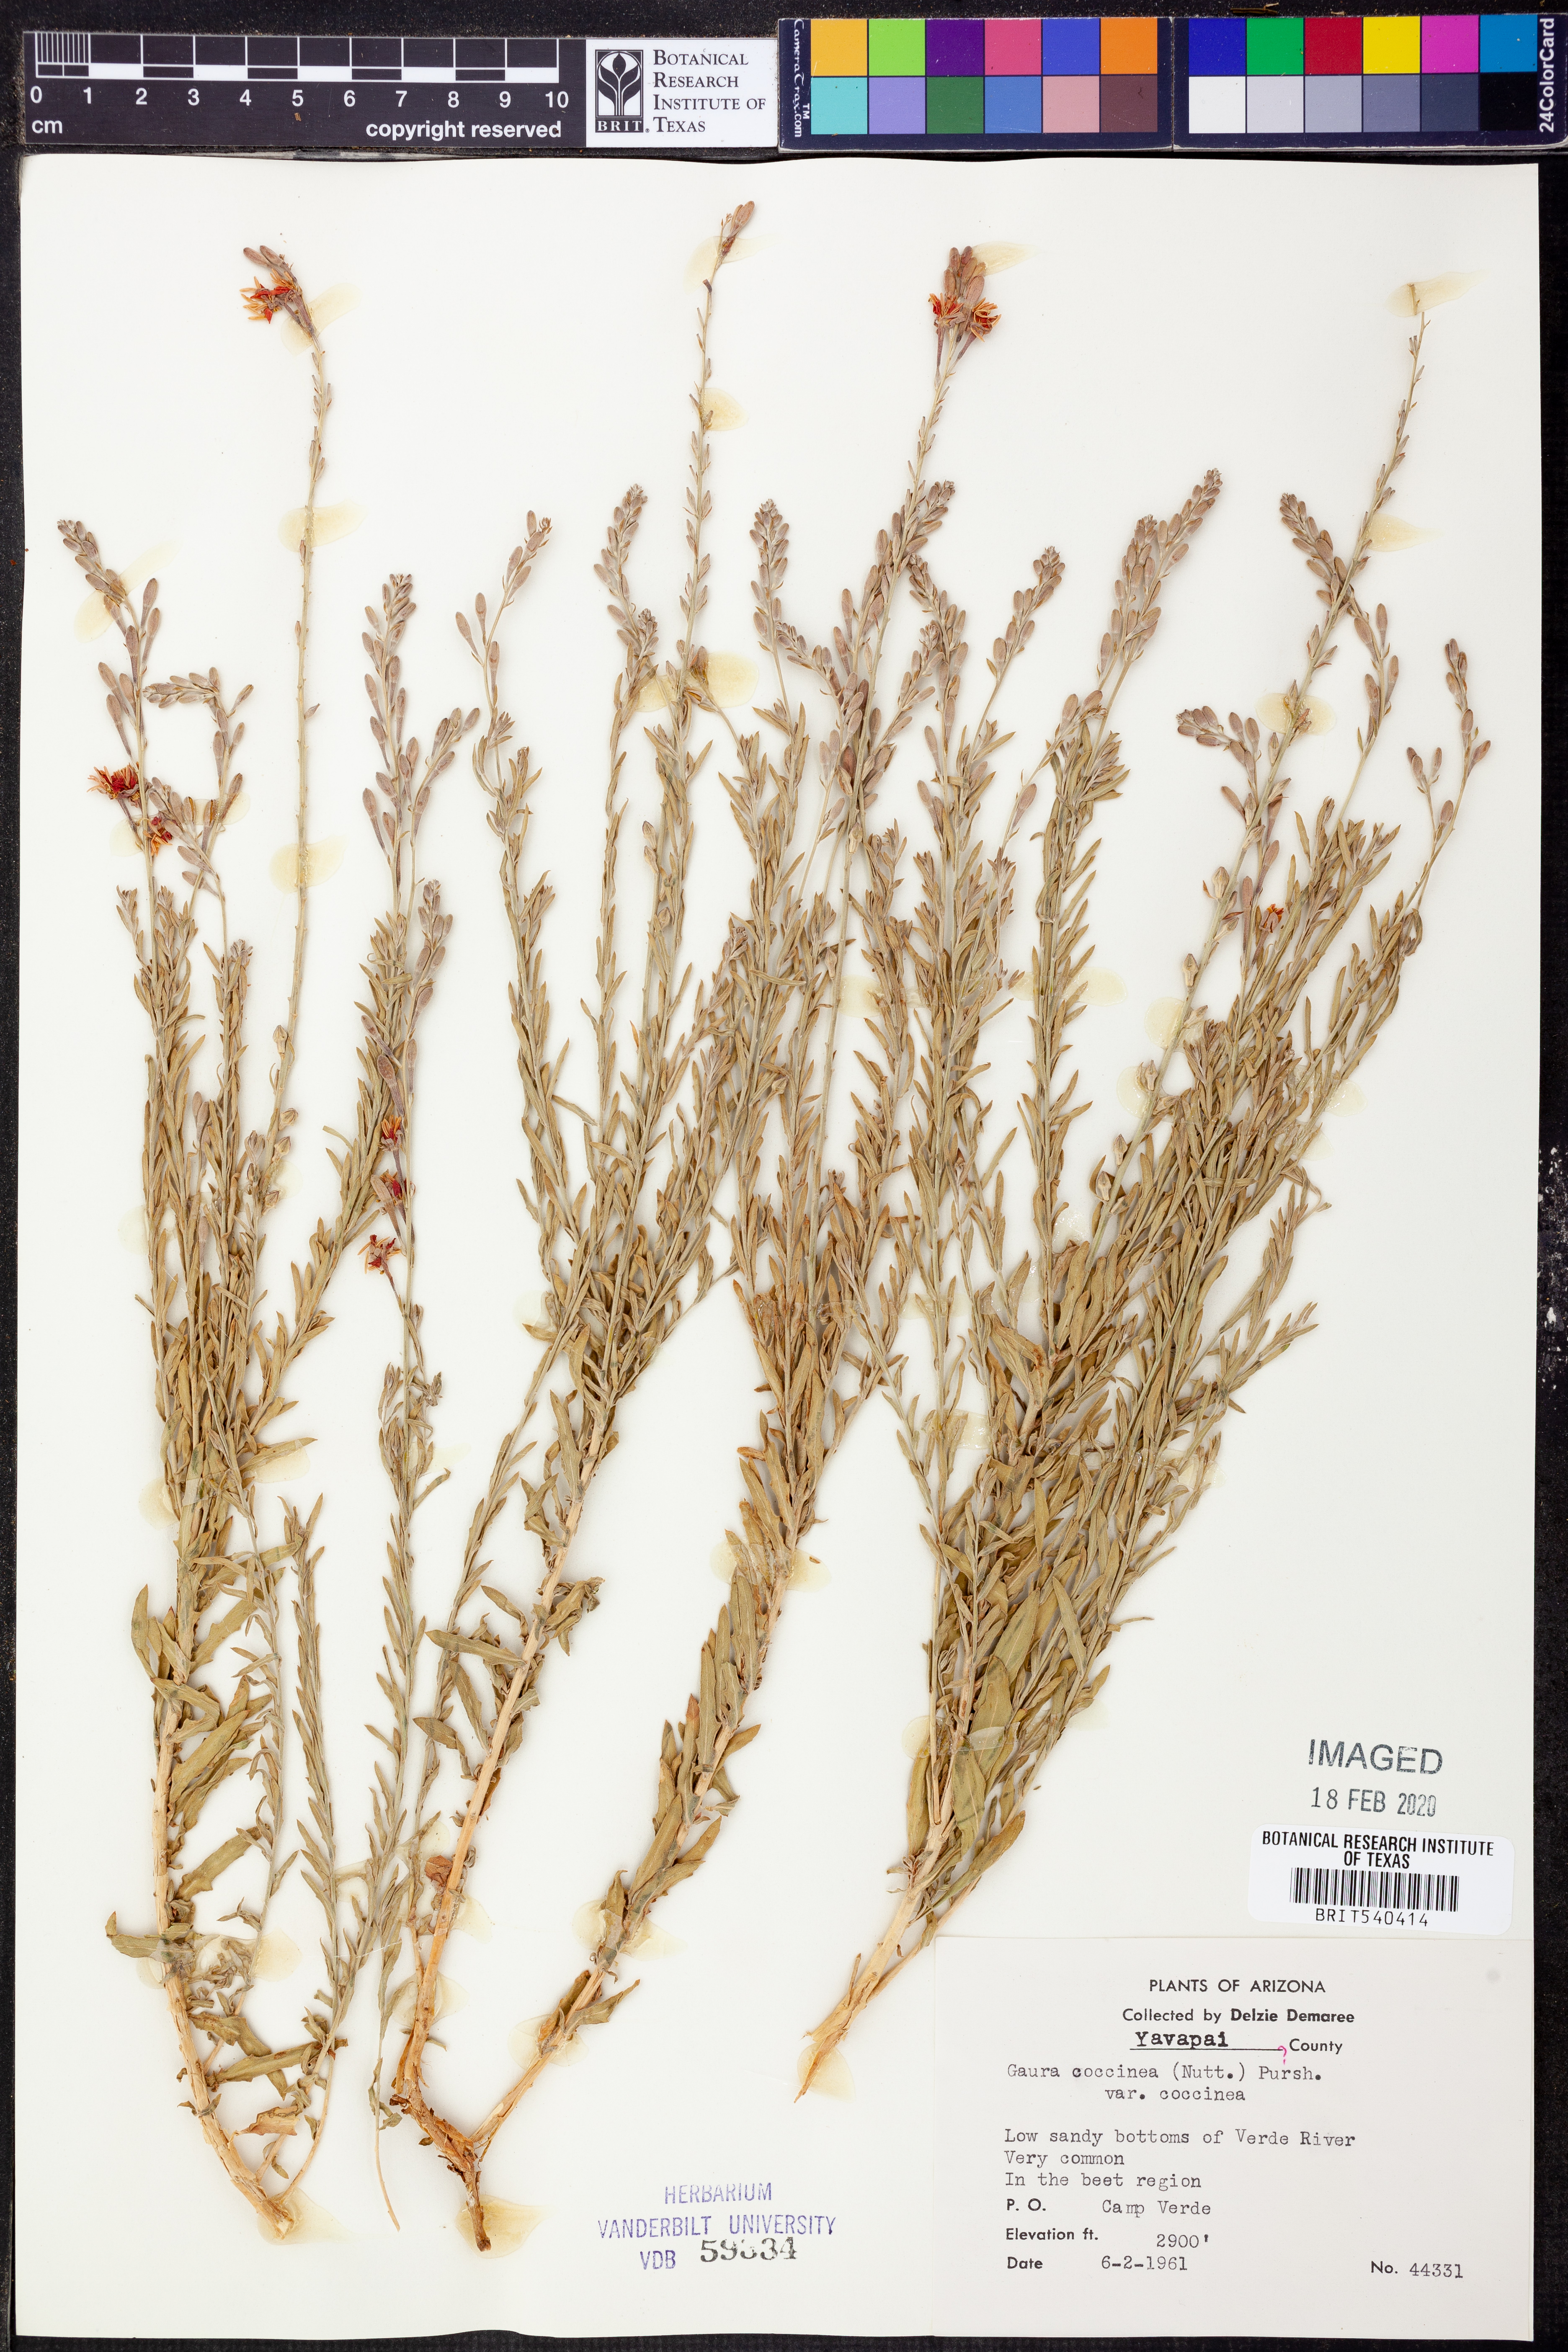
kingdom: Plantae
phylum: Tracheophyta
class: Magnoliopsida
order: Myrtales
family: Onagraceae
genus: Oenothera
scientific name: Oenothera suffrutescens
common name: Scarlet beeblossom
